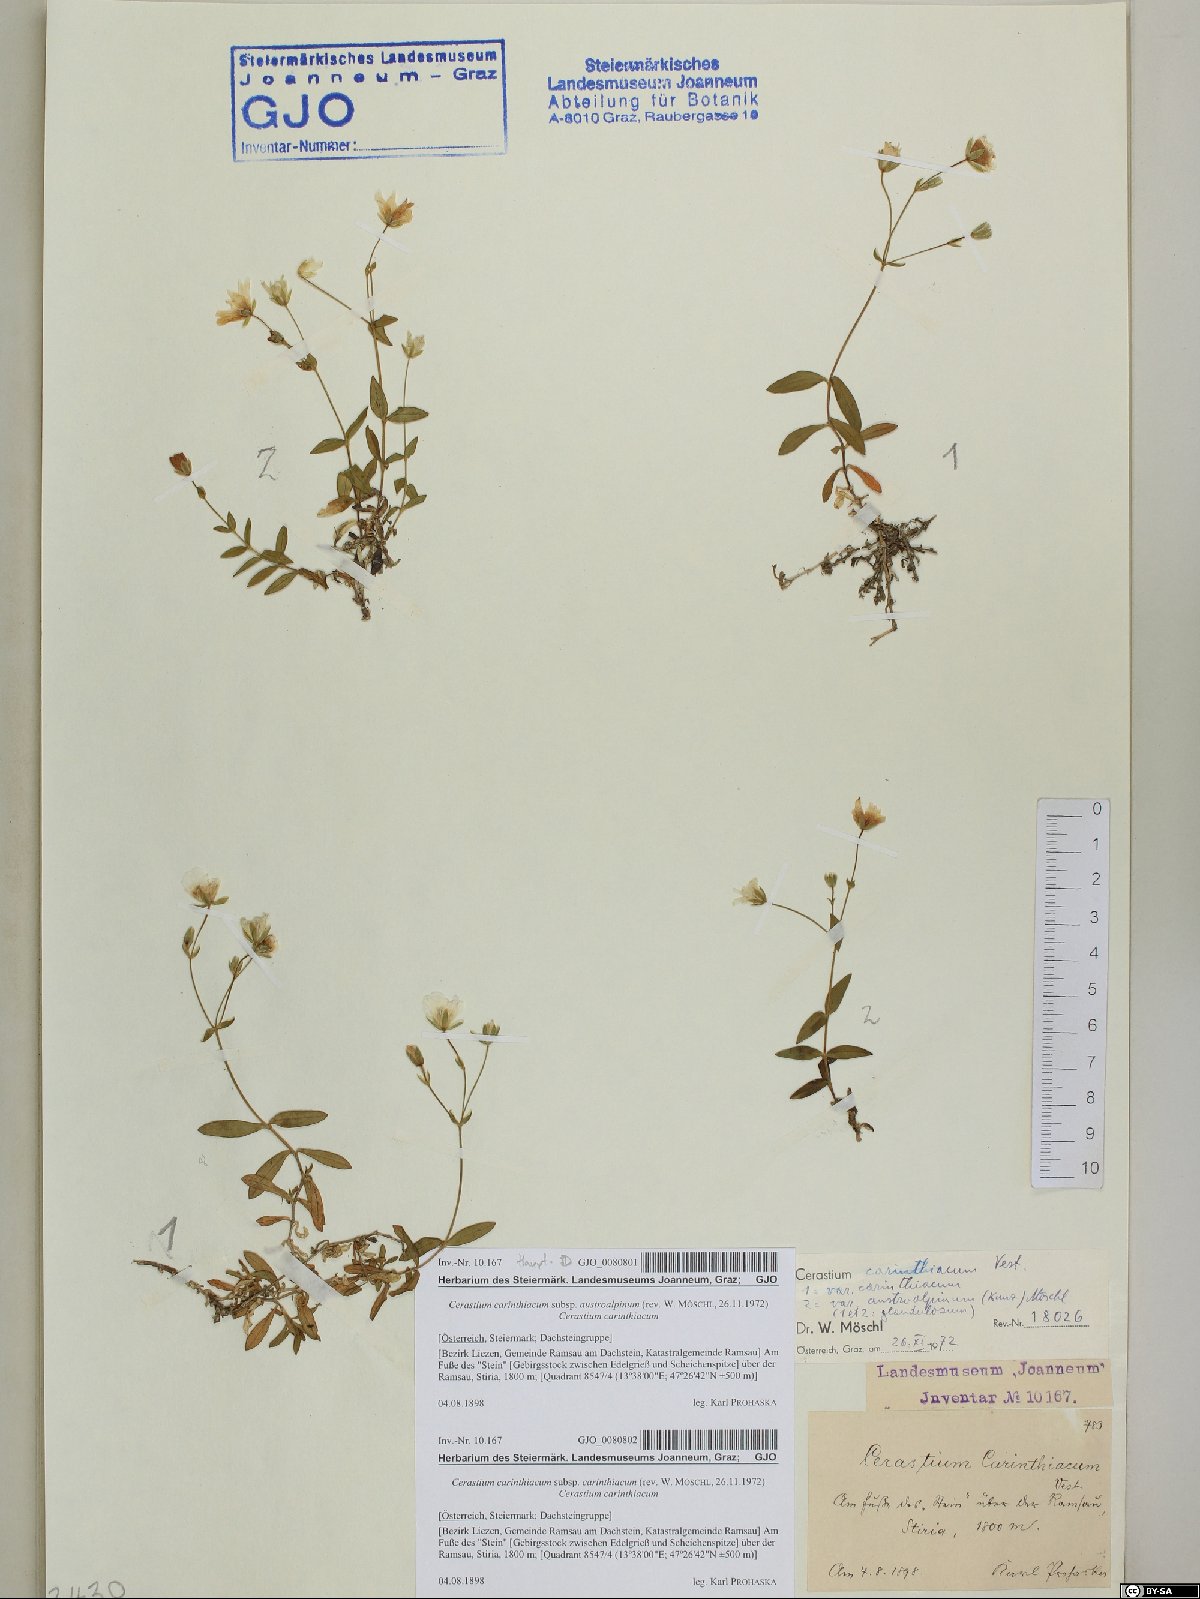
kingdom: Plantae
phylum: Tracheophyta
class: Magnoliopsida
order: Caryophyllales
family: Caryophyllaceae
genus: Cerastium
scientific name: Cerastium carinthiacum
